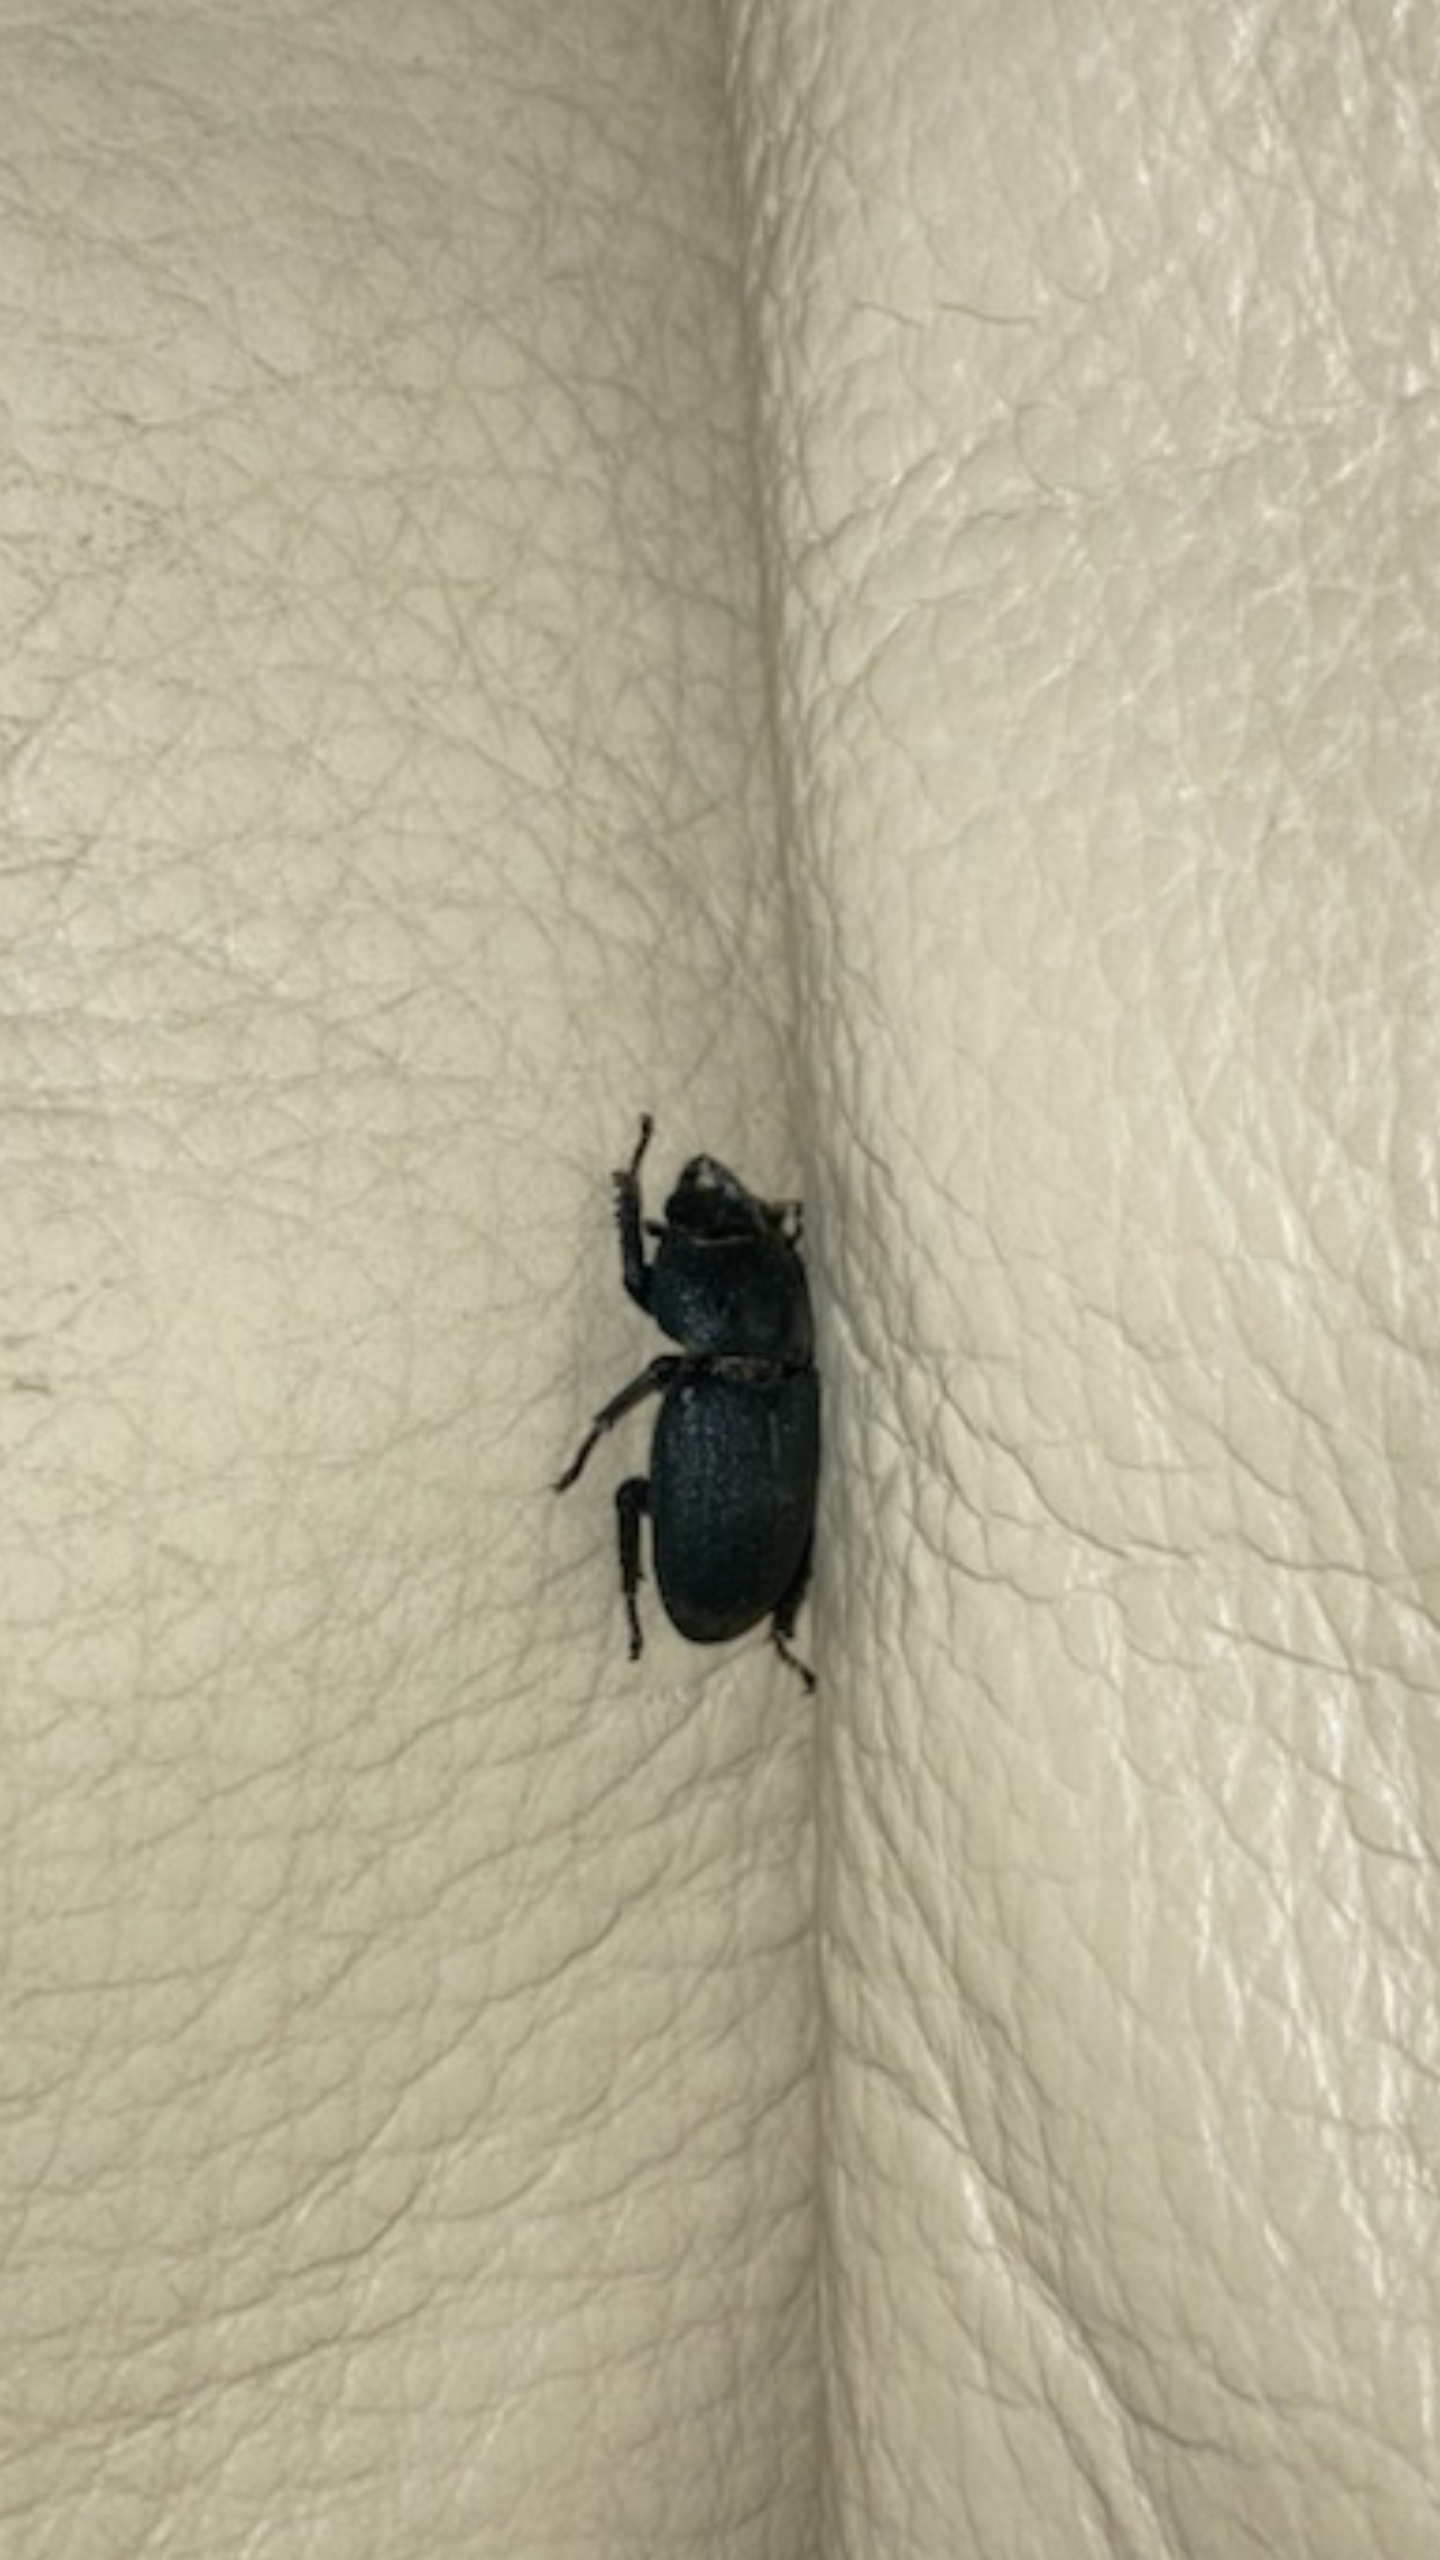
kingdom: Animalia
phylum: Arthropoda
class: Insecta
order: Coleoptera
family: Lucanidae
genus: Dorcus
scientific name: Dorcus parallelipipedus
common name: Bøghjort
